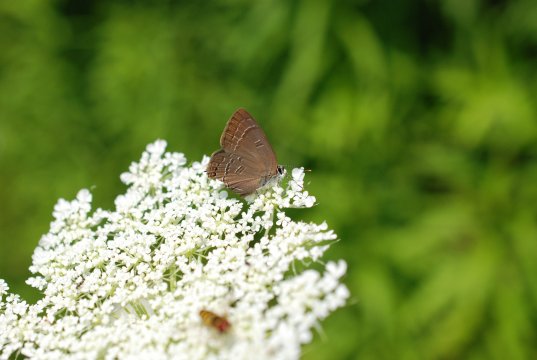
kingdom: Animalia
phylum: Arthropoda
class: Insecta
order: Lepidoptera
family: Lycaenidae
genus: Satyrium
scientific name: Satyrium calanus
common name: Banded Hairstreak
